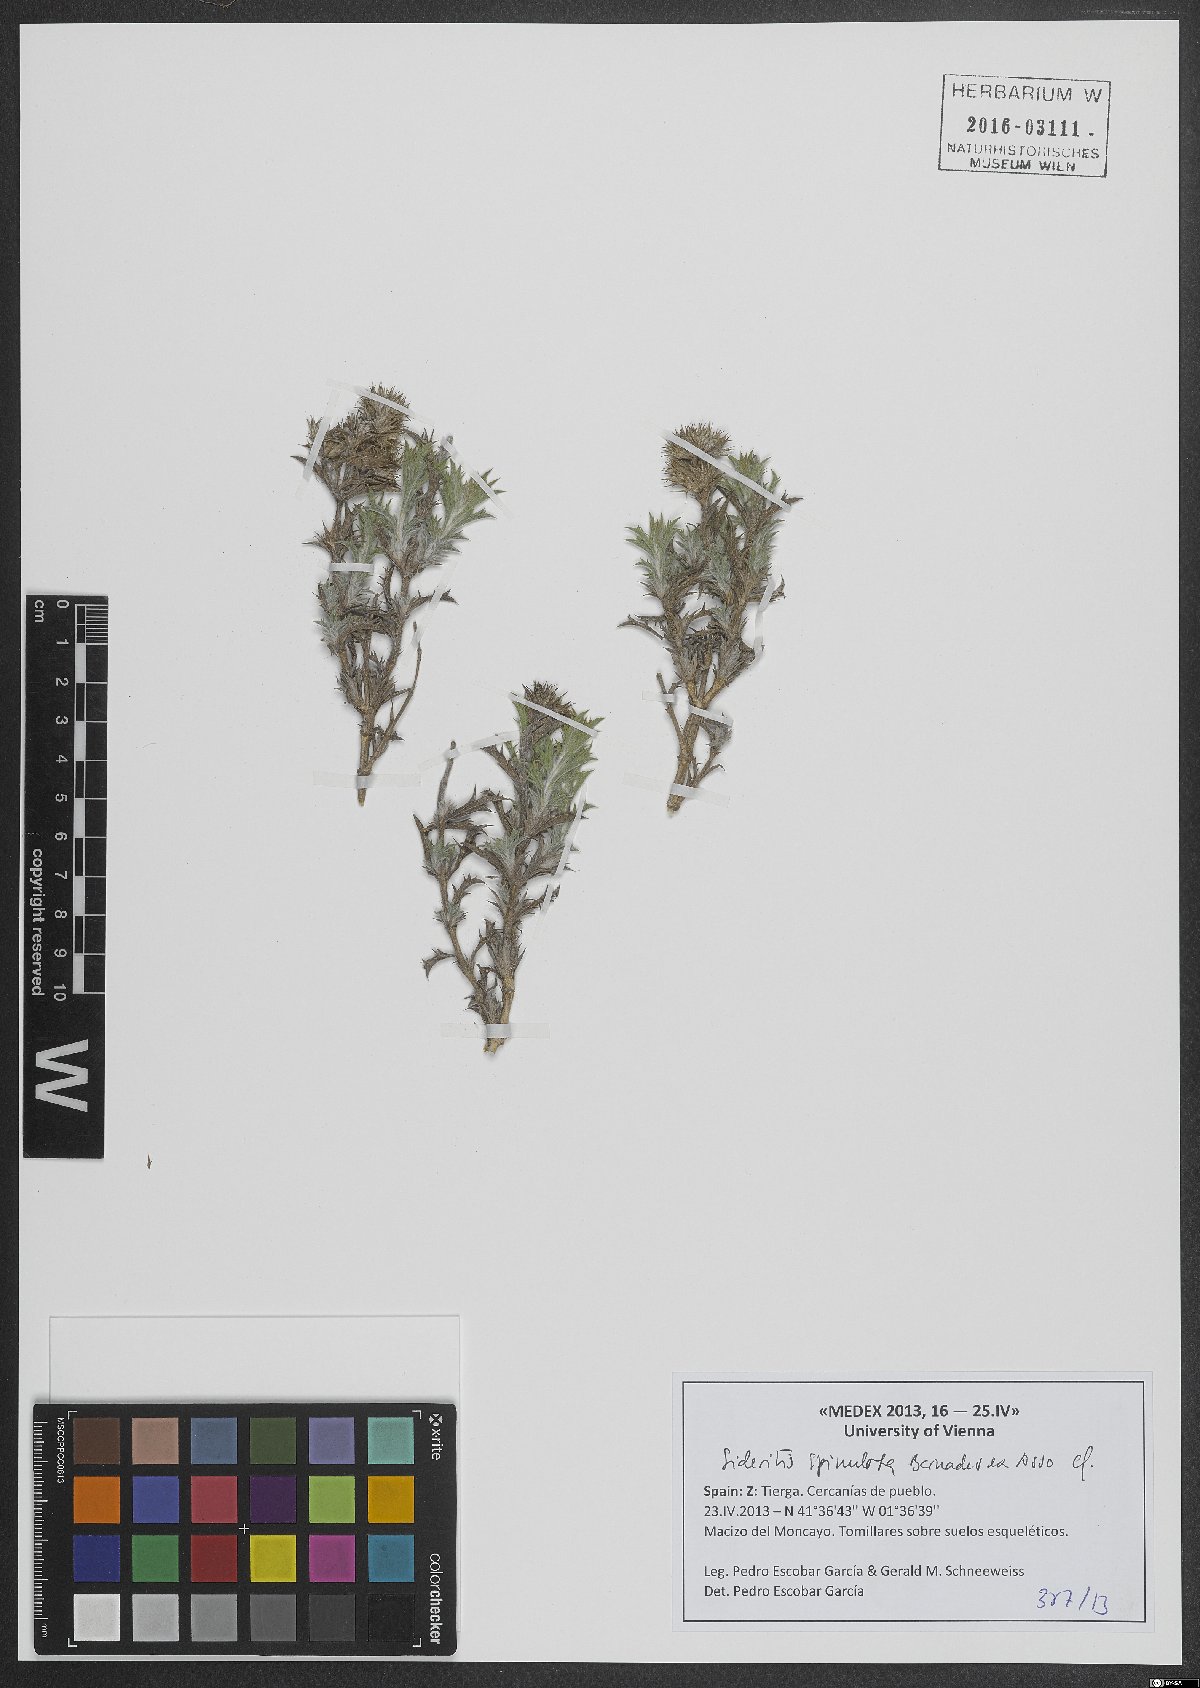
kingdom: Plantae
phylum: Tracheophyta
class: Magnoliopsida
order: Lamiales
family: Lamiaceae
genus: Sideritis
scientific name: Sideritis spinulosa
